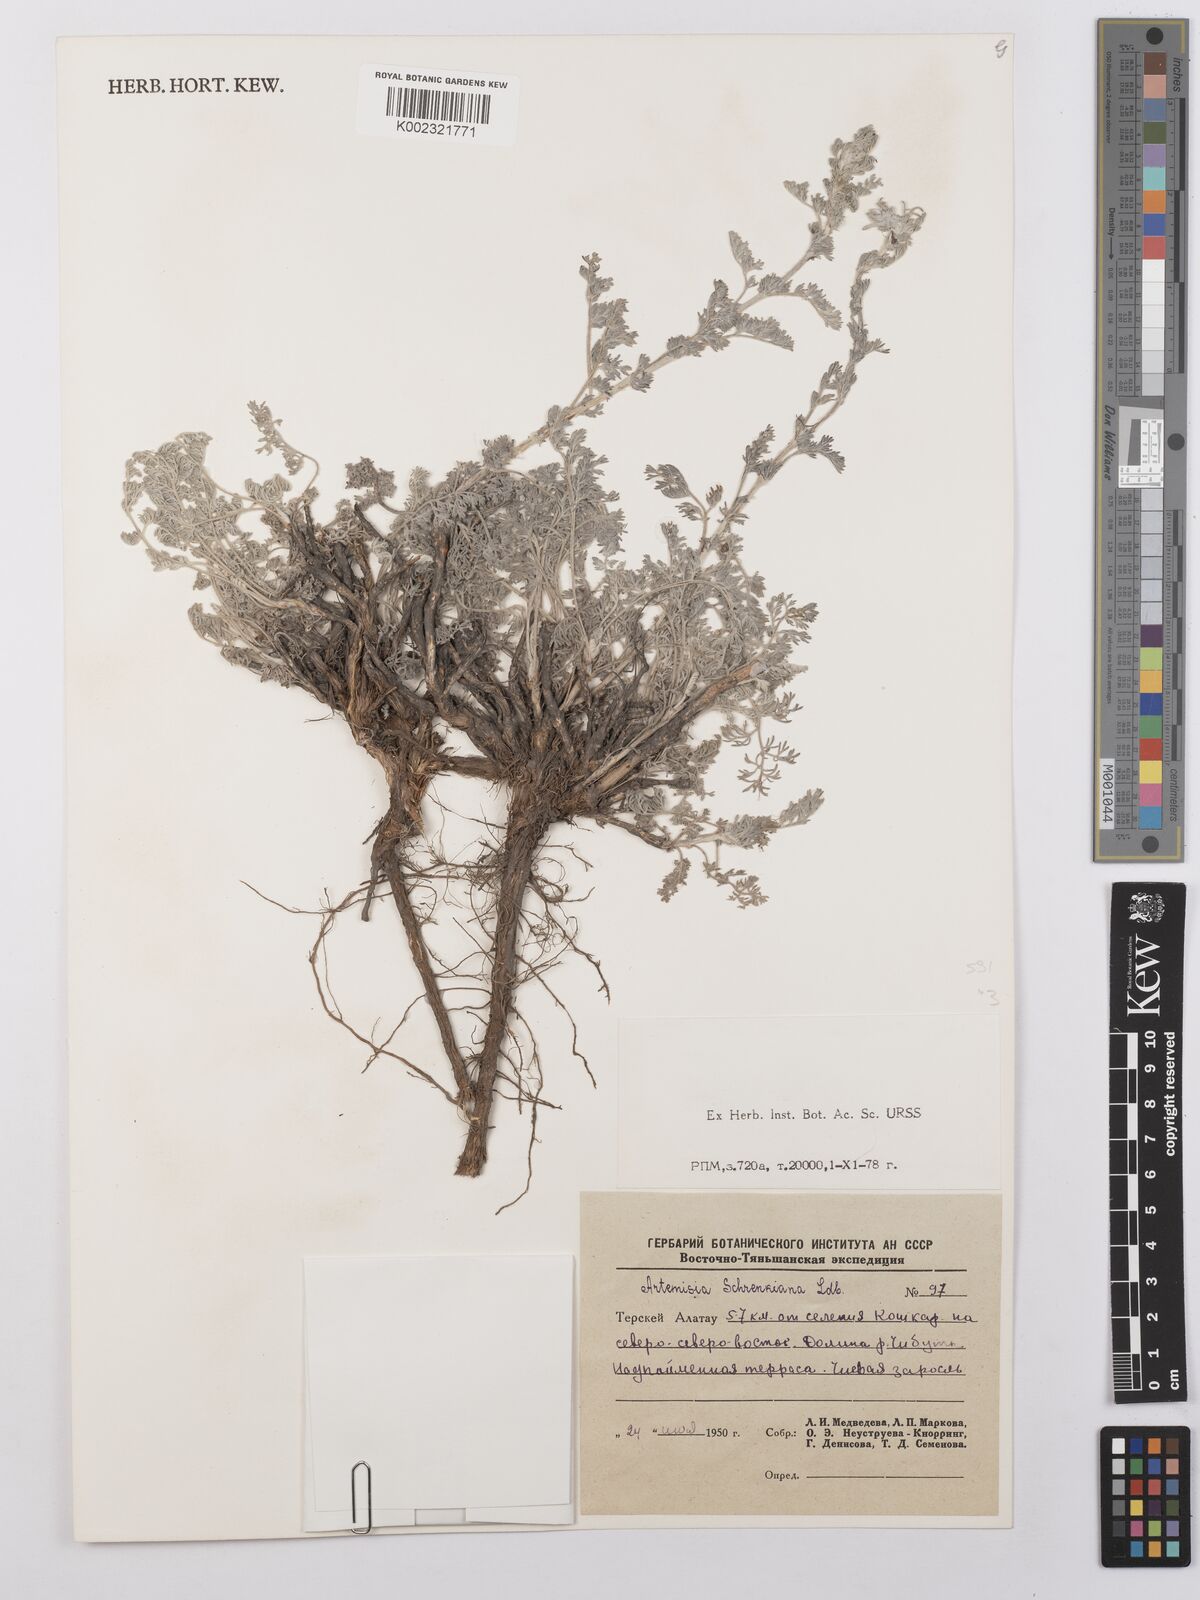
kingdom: Plantae
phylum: Tracheophyta
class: Magnoliopsida
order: Asterales
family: Asteraceae
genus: Artemisia
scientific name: Artemisia schrenkiana
